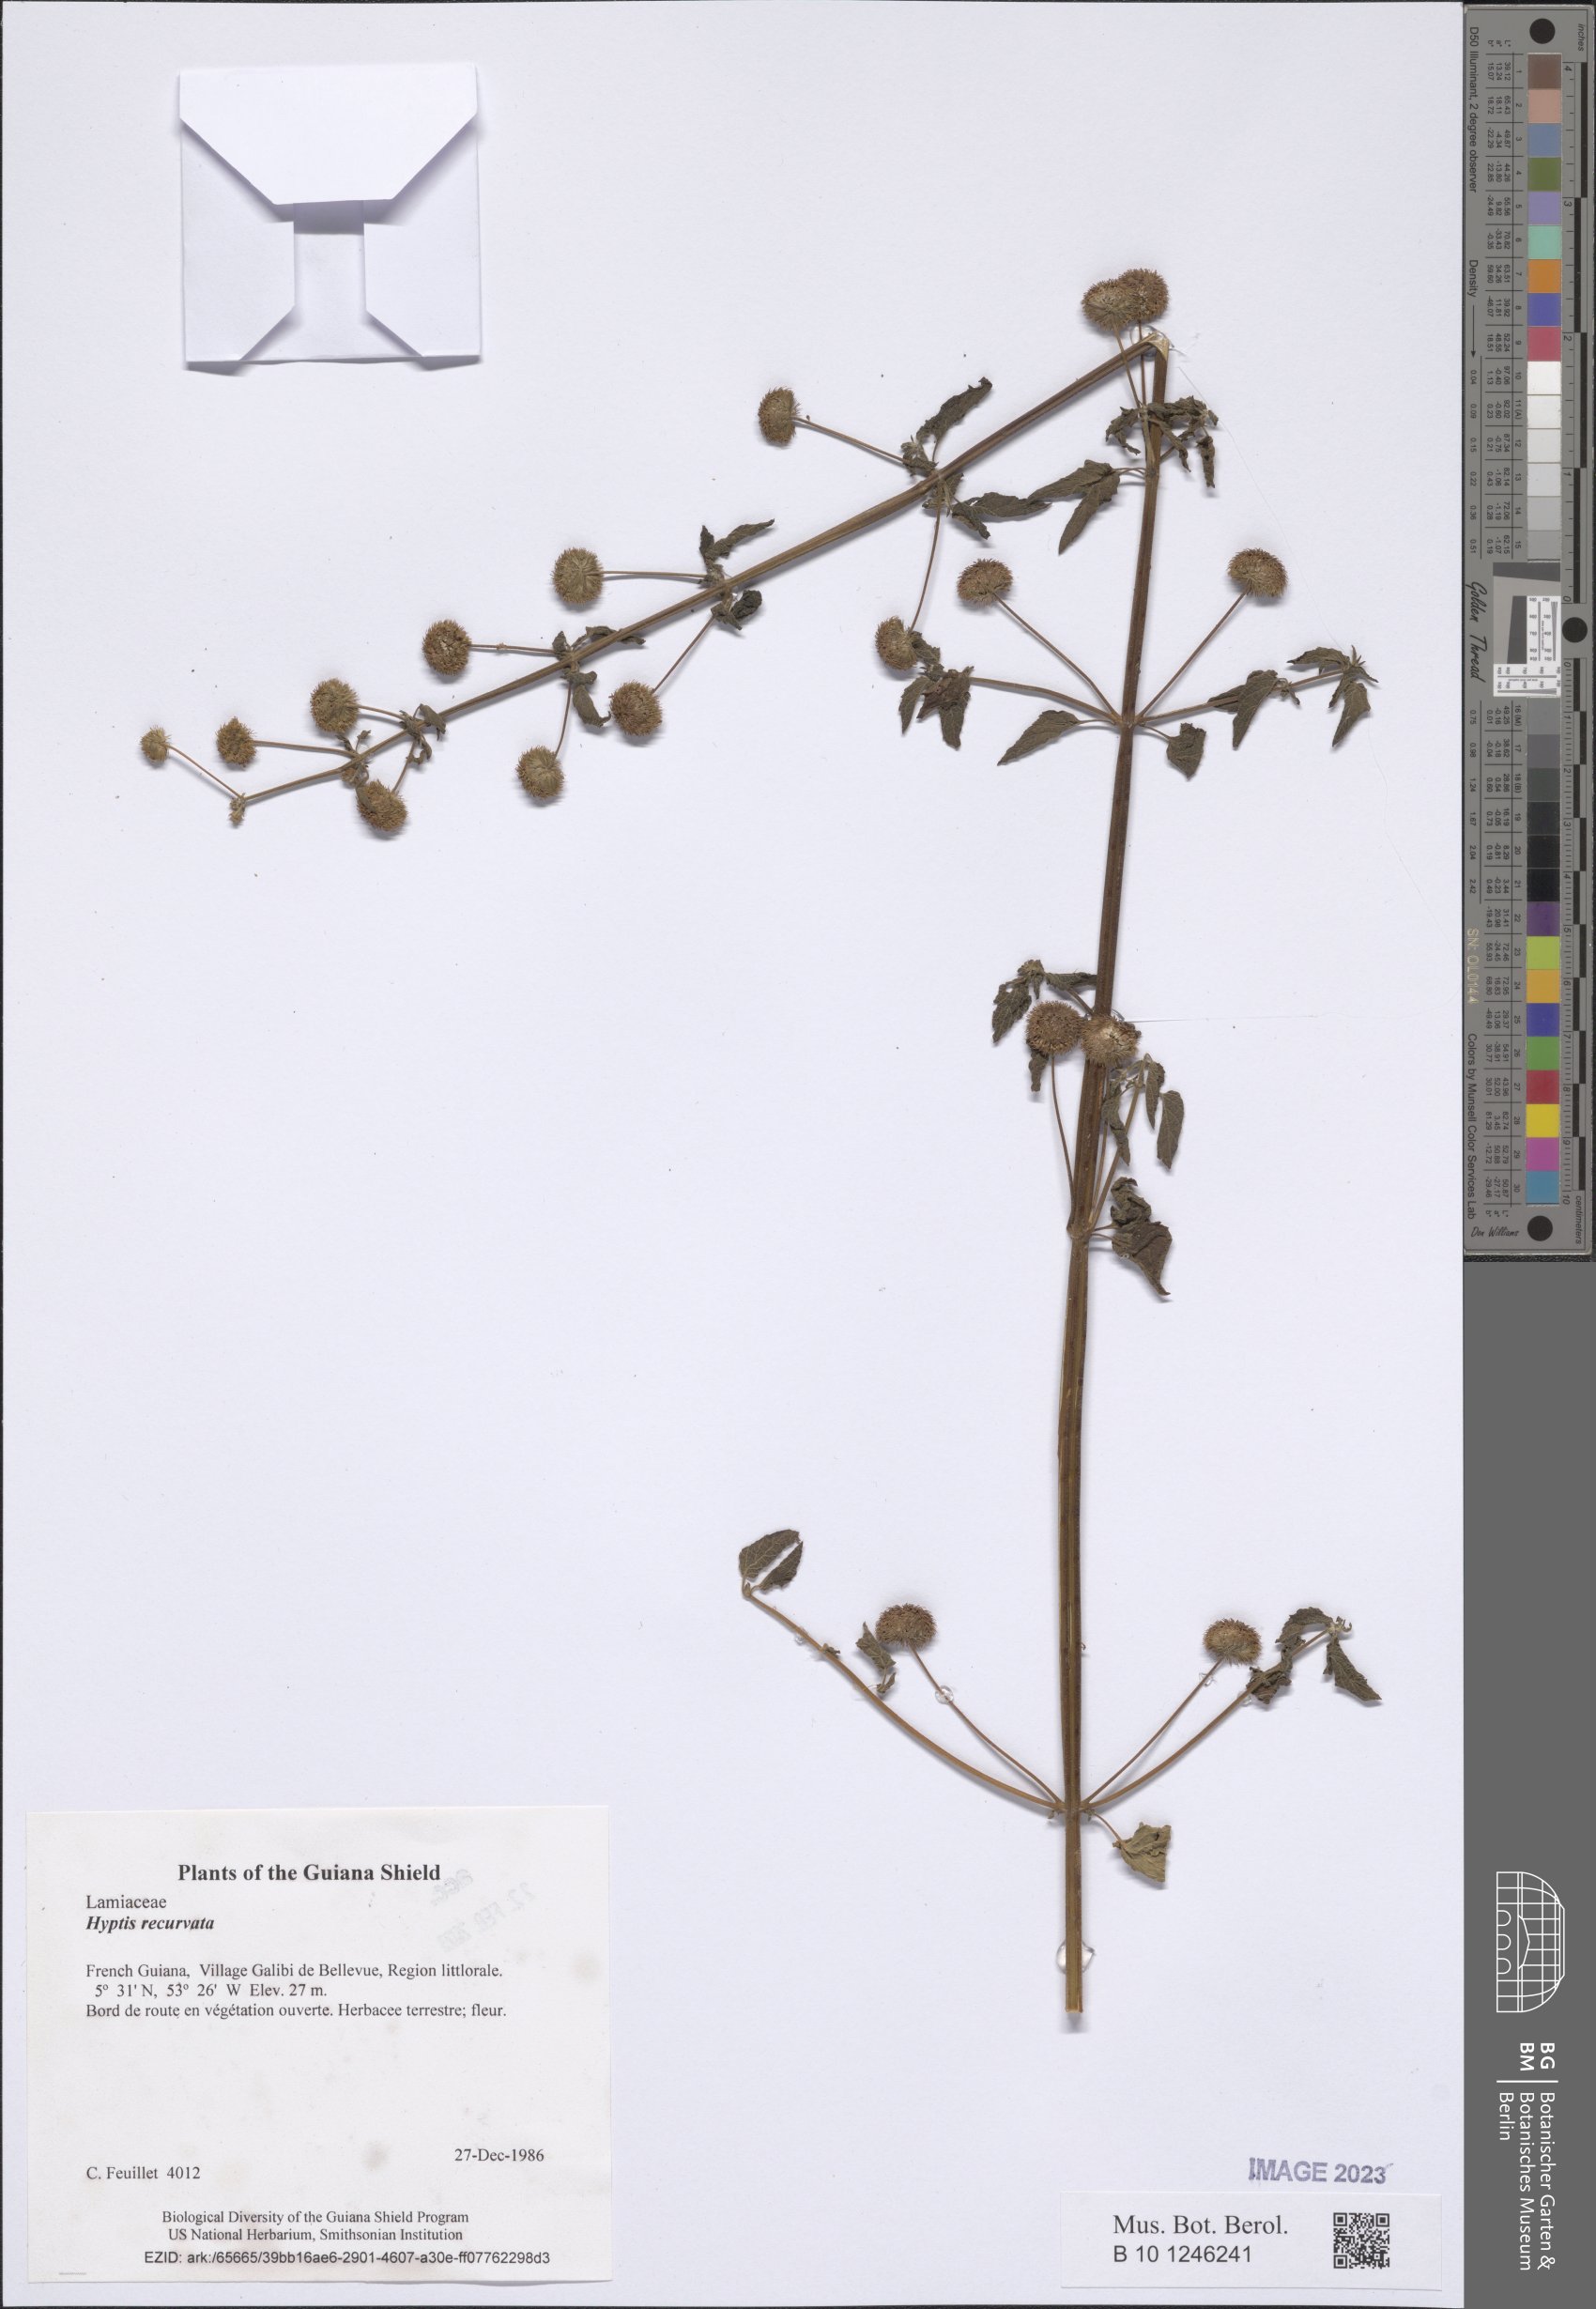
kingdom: Plantae
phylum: Tracheophyta
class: Magnoliopsida
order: Lamiales
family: Lamiaceae
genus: Hyptis
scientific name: Hyptis recurvata
